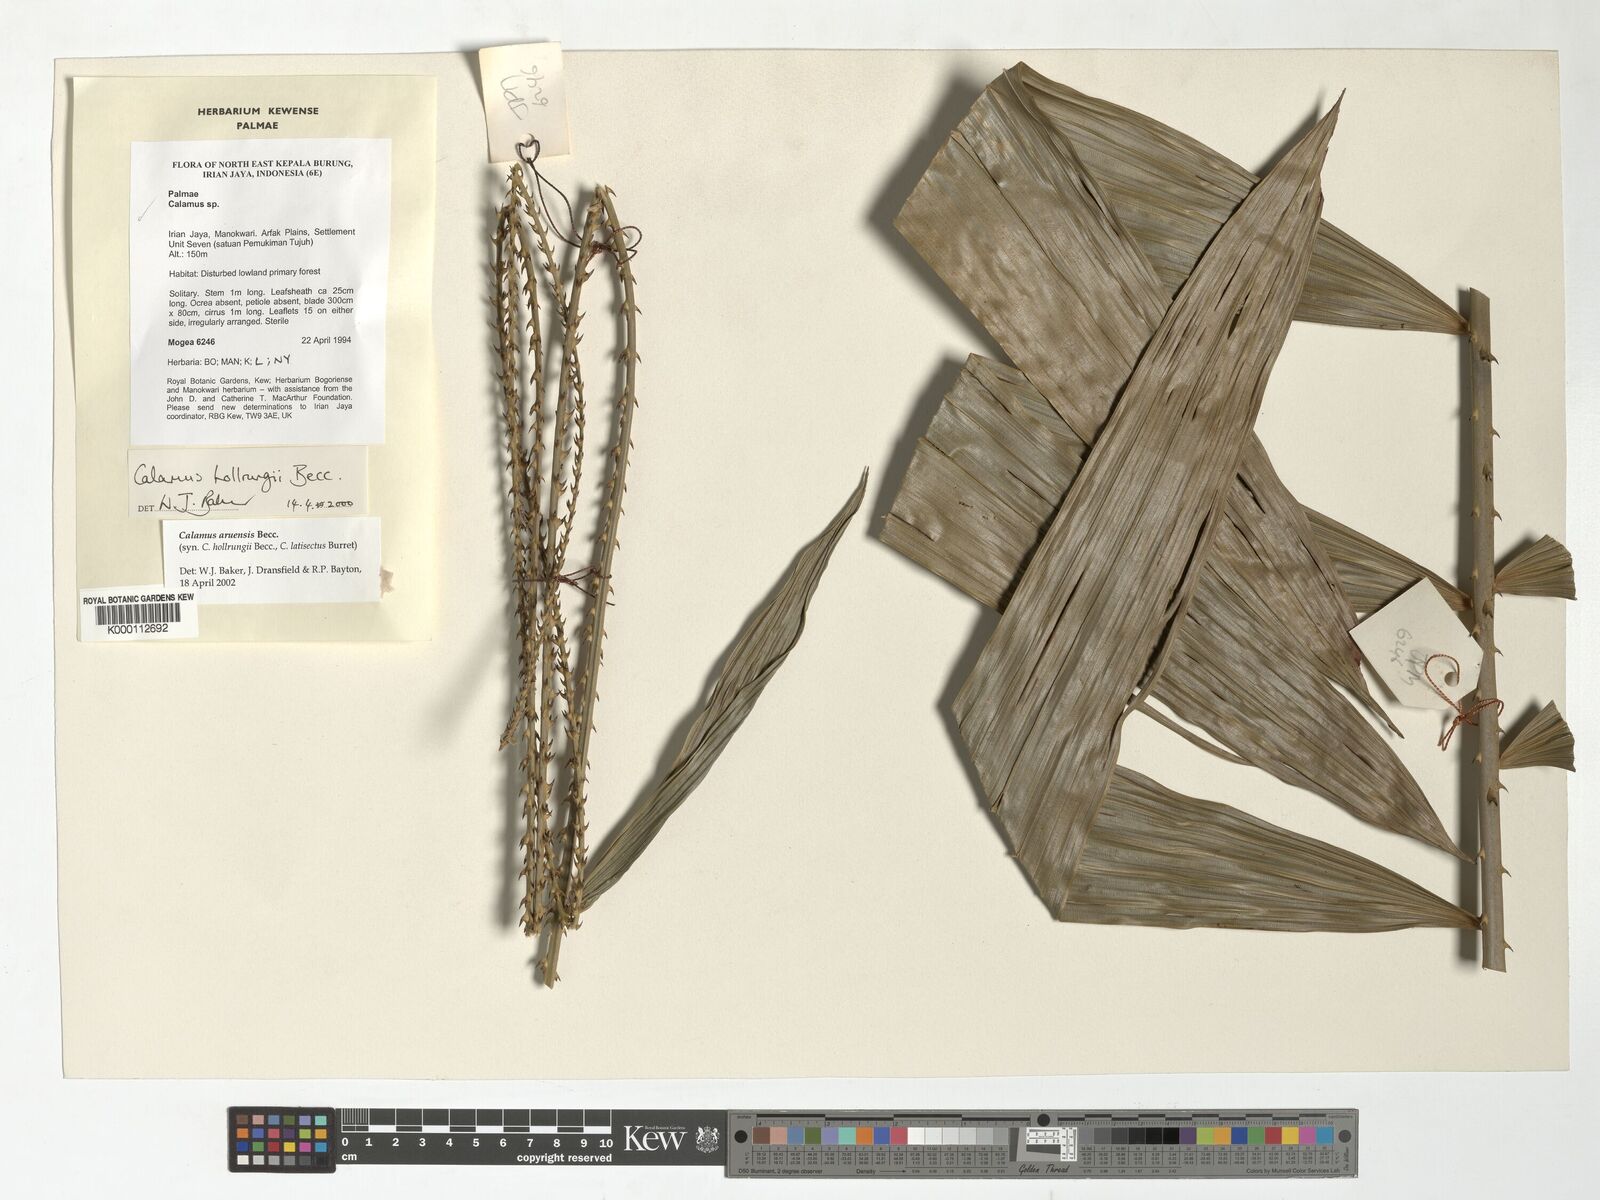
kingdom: Plantae
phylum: Tracheophyta
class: Liliopsida
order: Arecales
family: Arecaceae
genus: Calamus
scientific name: Calamus aruensis
